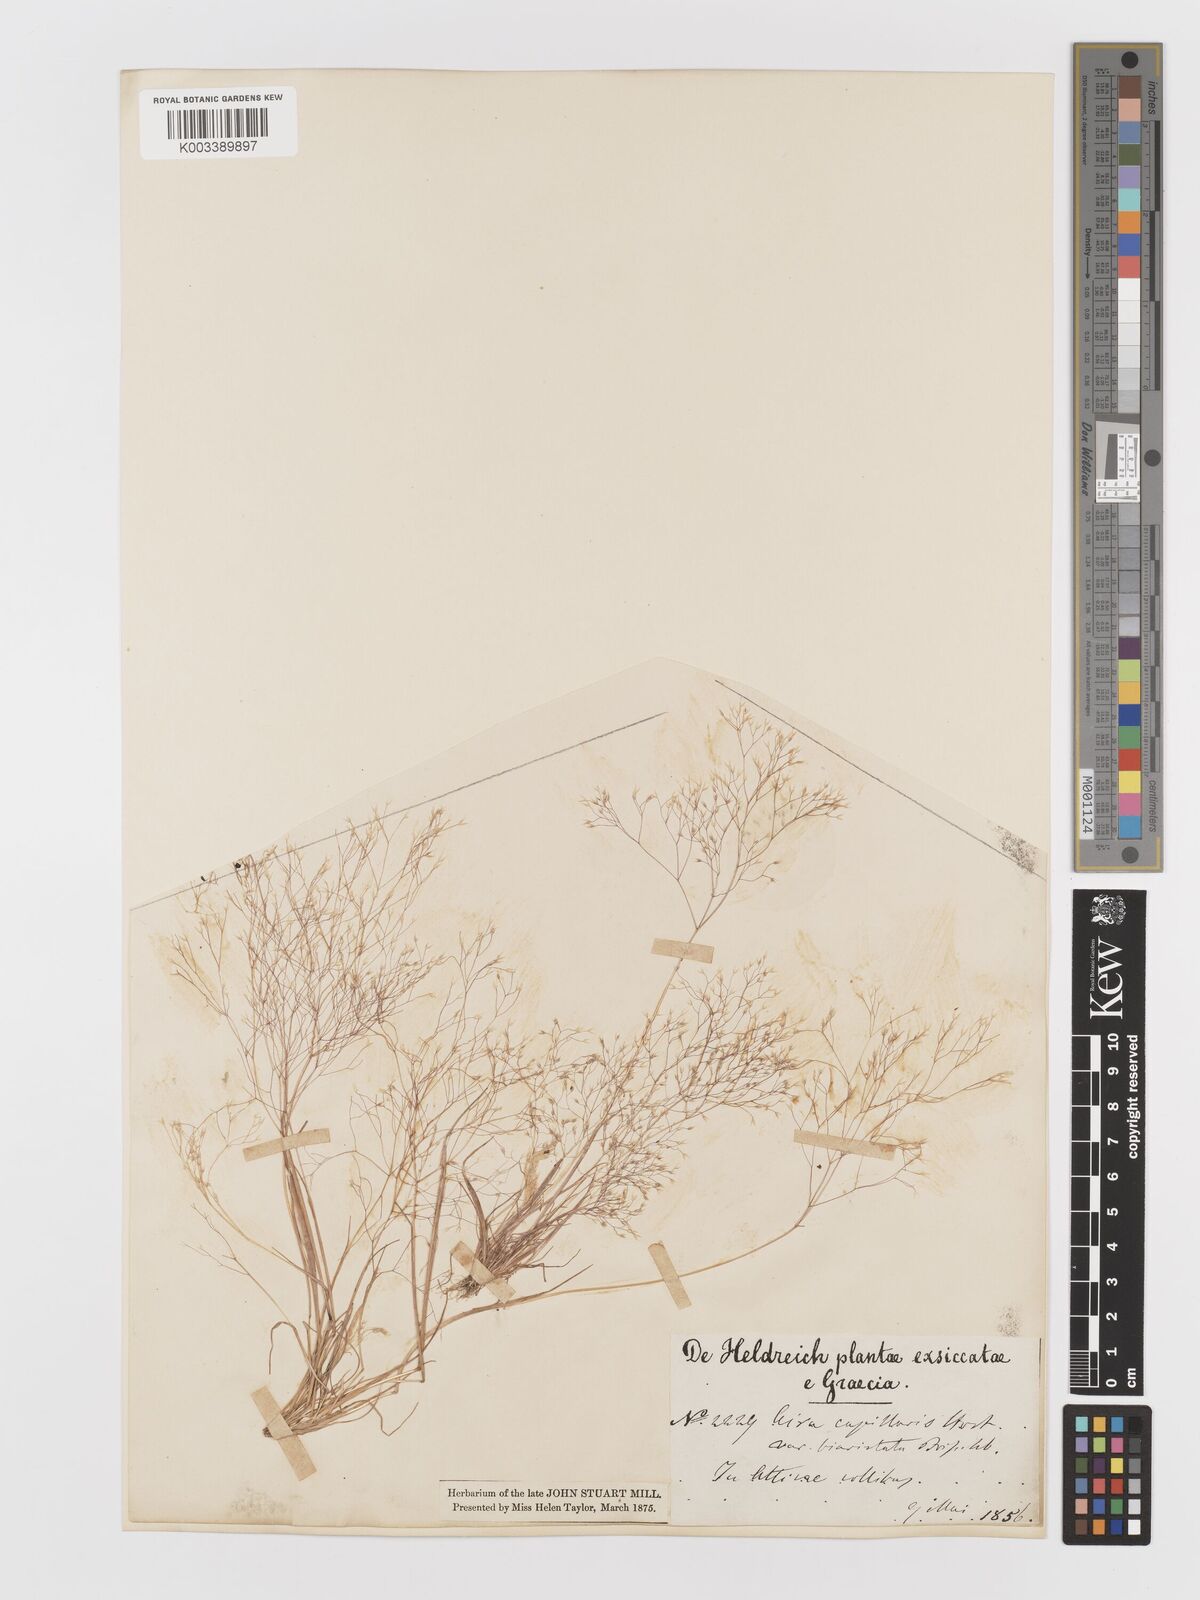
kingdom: Plantae
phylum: Tracheophyta
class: Liliopsida
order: Poales
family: Poaceae
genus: Aira
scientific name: Aira elegans
